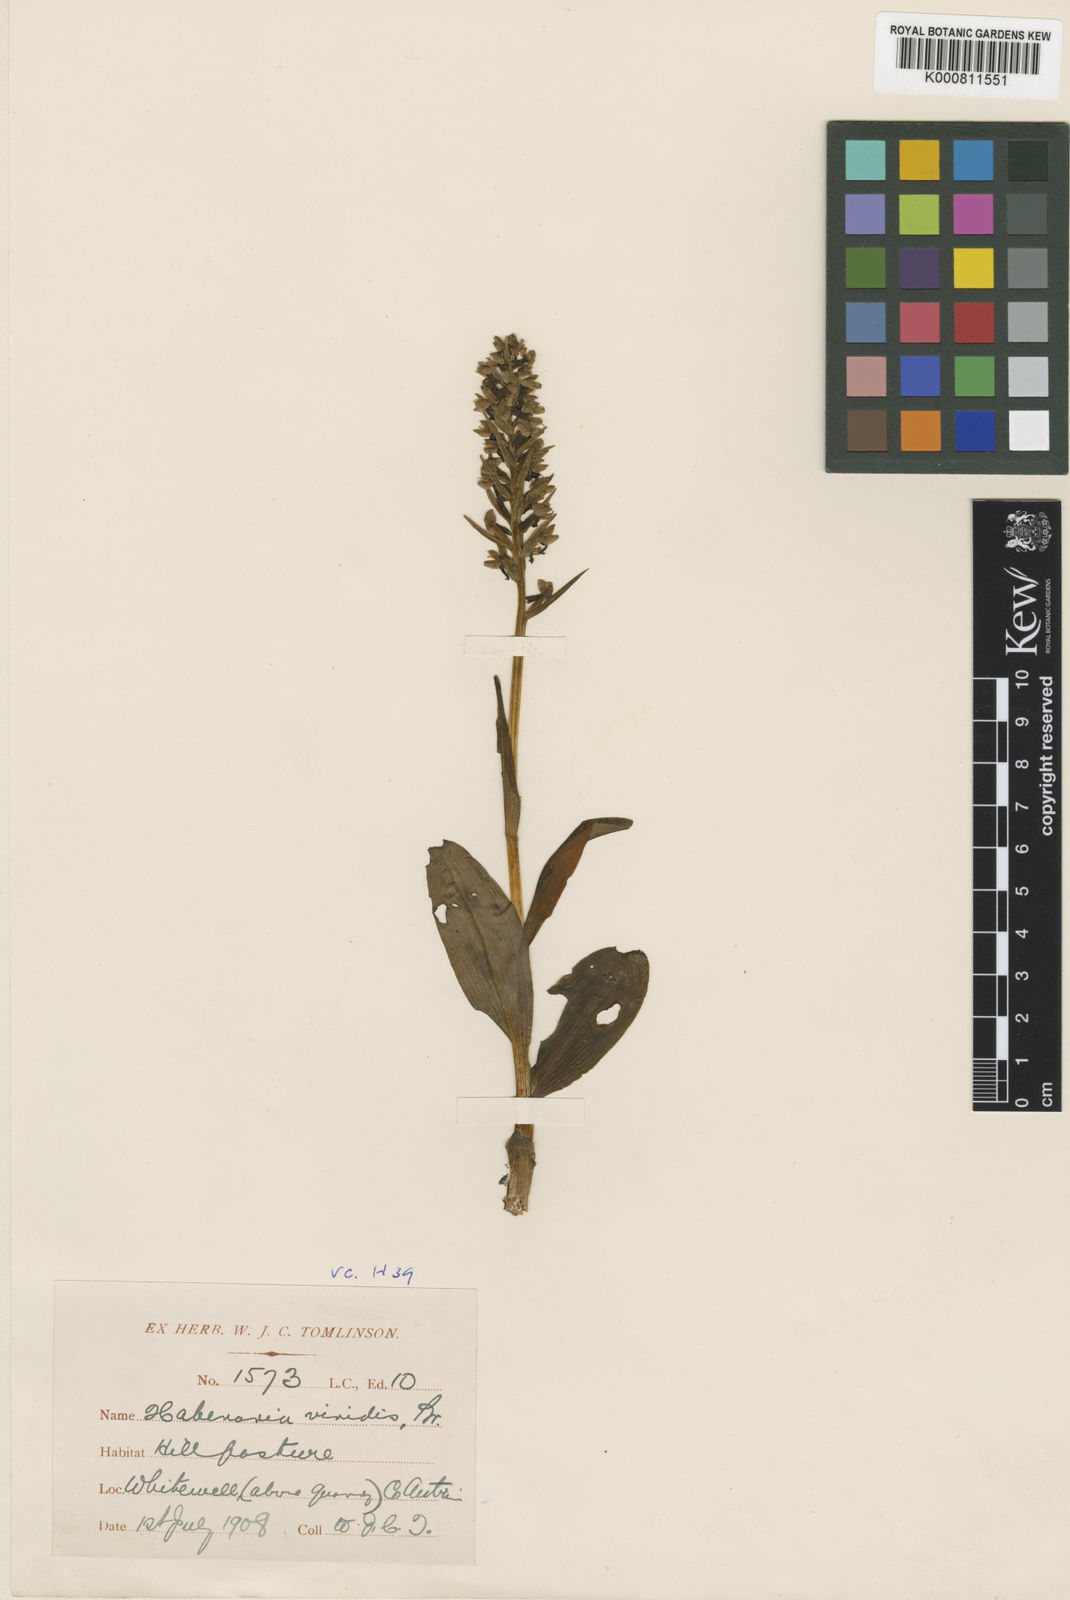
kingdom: Plantae
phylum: Tracheophyta
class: Liliopsida
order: Asparagales
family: Orchidaceae
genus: Dactylorhiza
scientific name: Dactylorhiza viridis
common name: Longbract frog orchid
